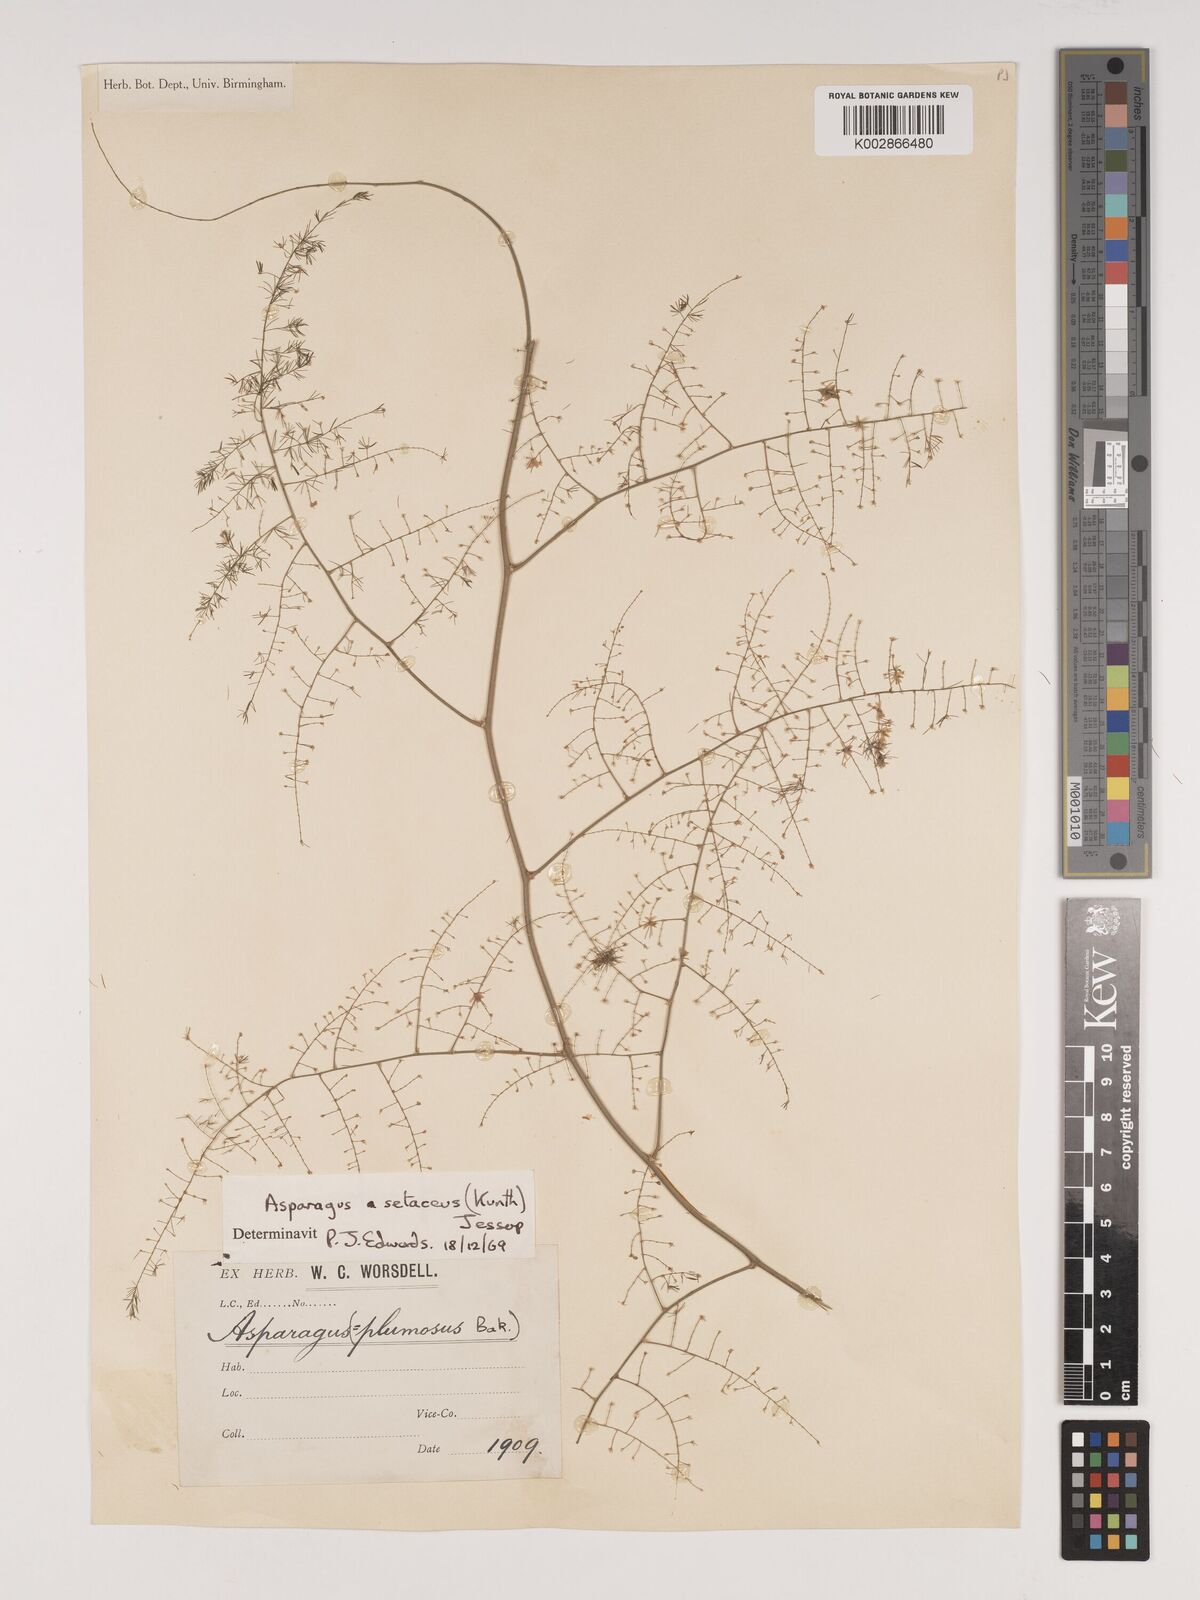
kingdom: Plantae
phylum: Tracheophyta
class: Liliopsida
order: Asparagales
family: Asparagaceae
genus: Asparagus
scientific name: Asparagus setaceus
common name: Common asparagus fern
